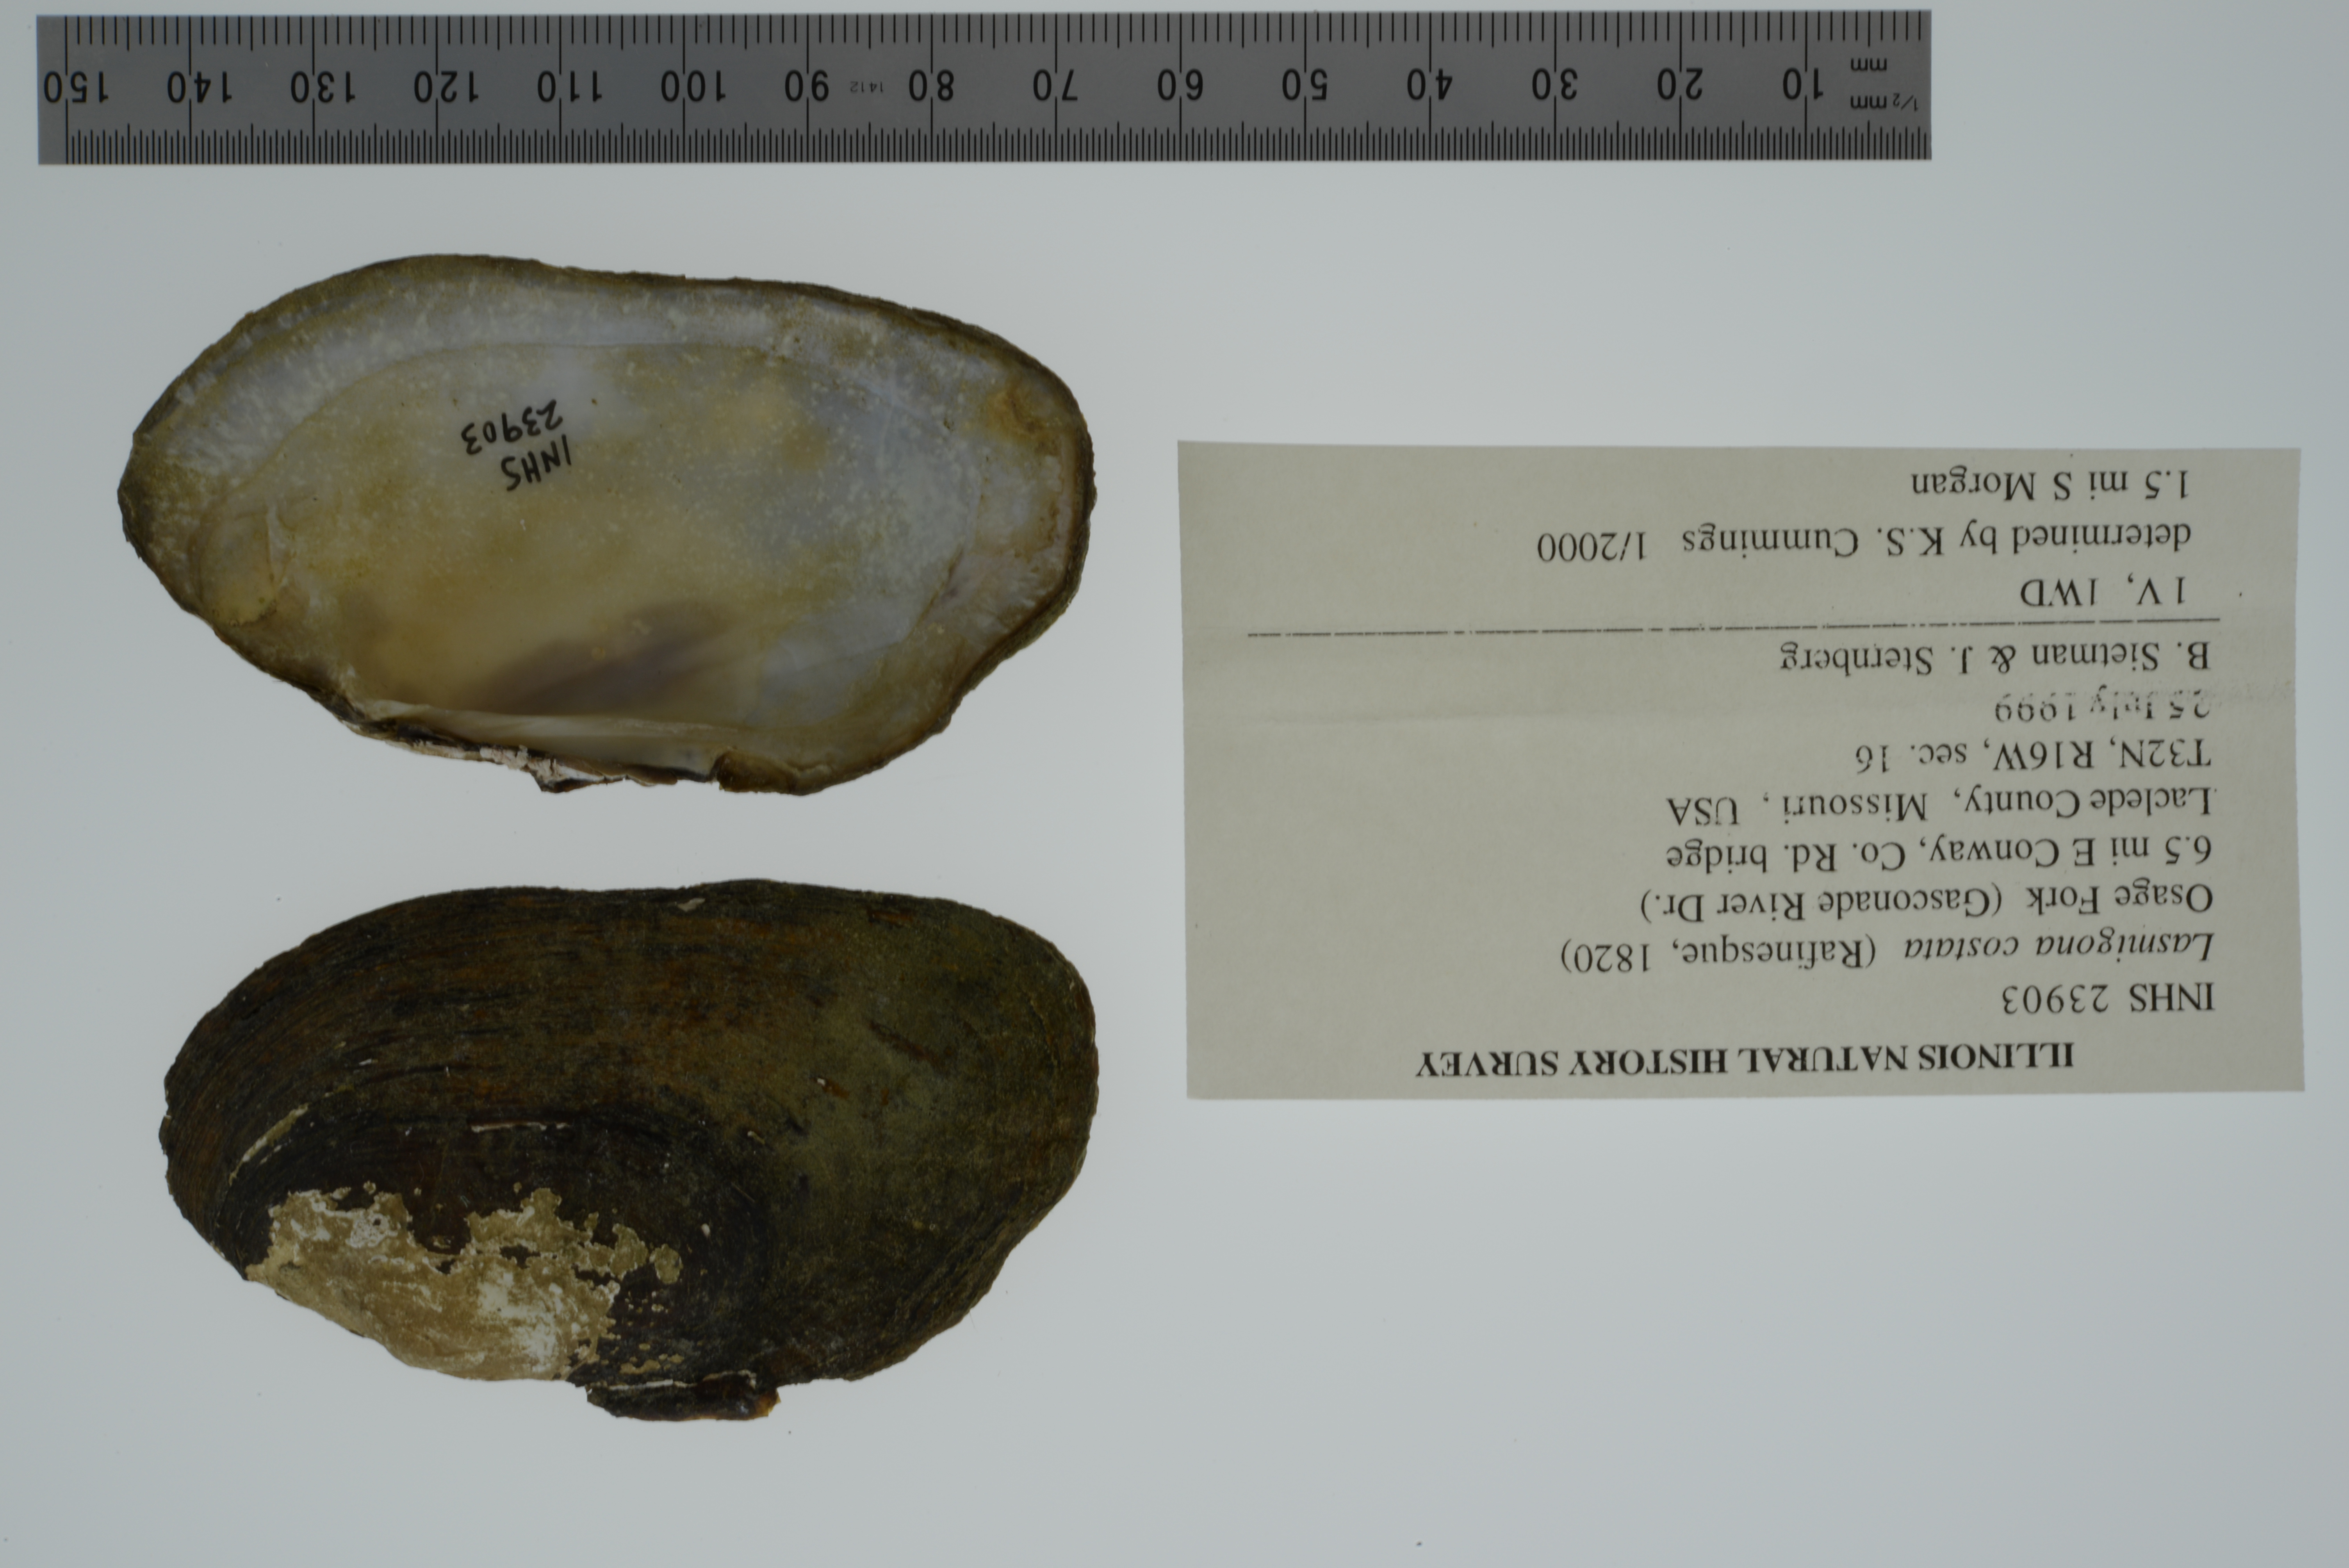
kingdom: Animalia
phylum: Mollusca
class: Bivalvia
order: Unionida
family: Unionidae
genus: Lasmigona
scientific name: Lasmigona costata
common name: Flutedshell
